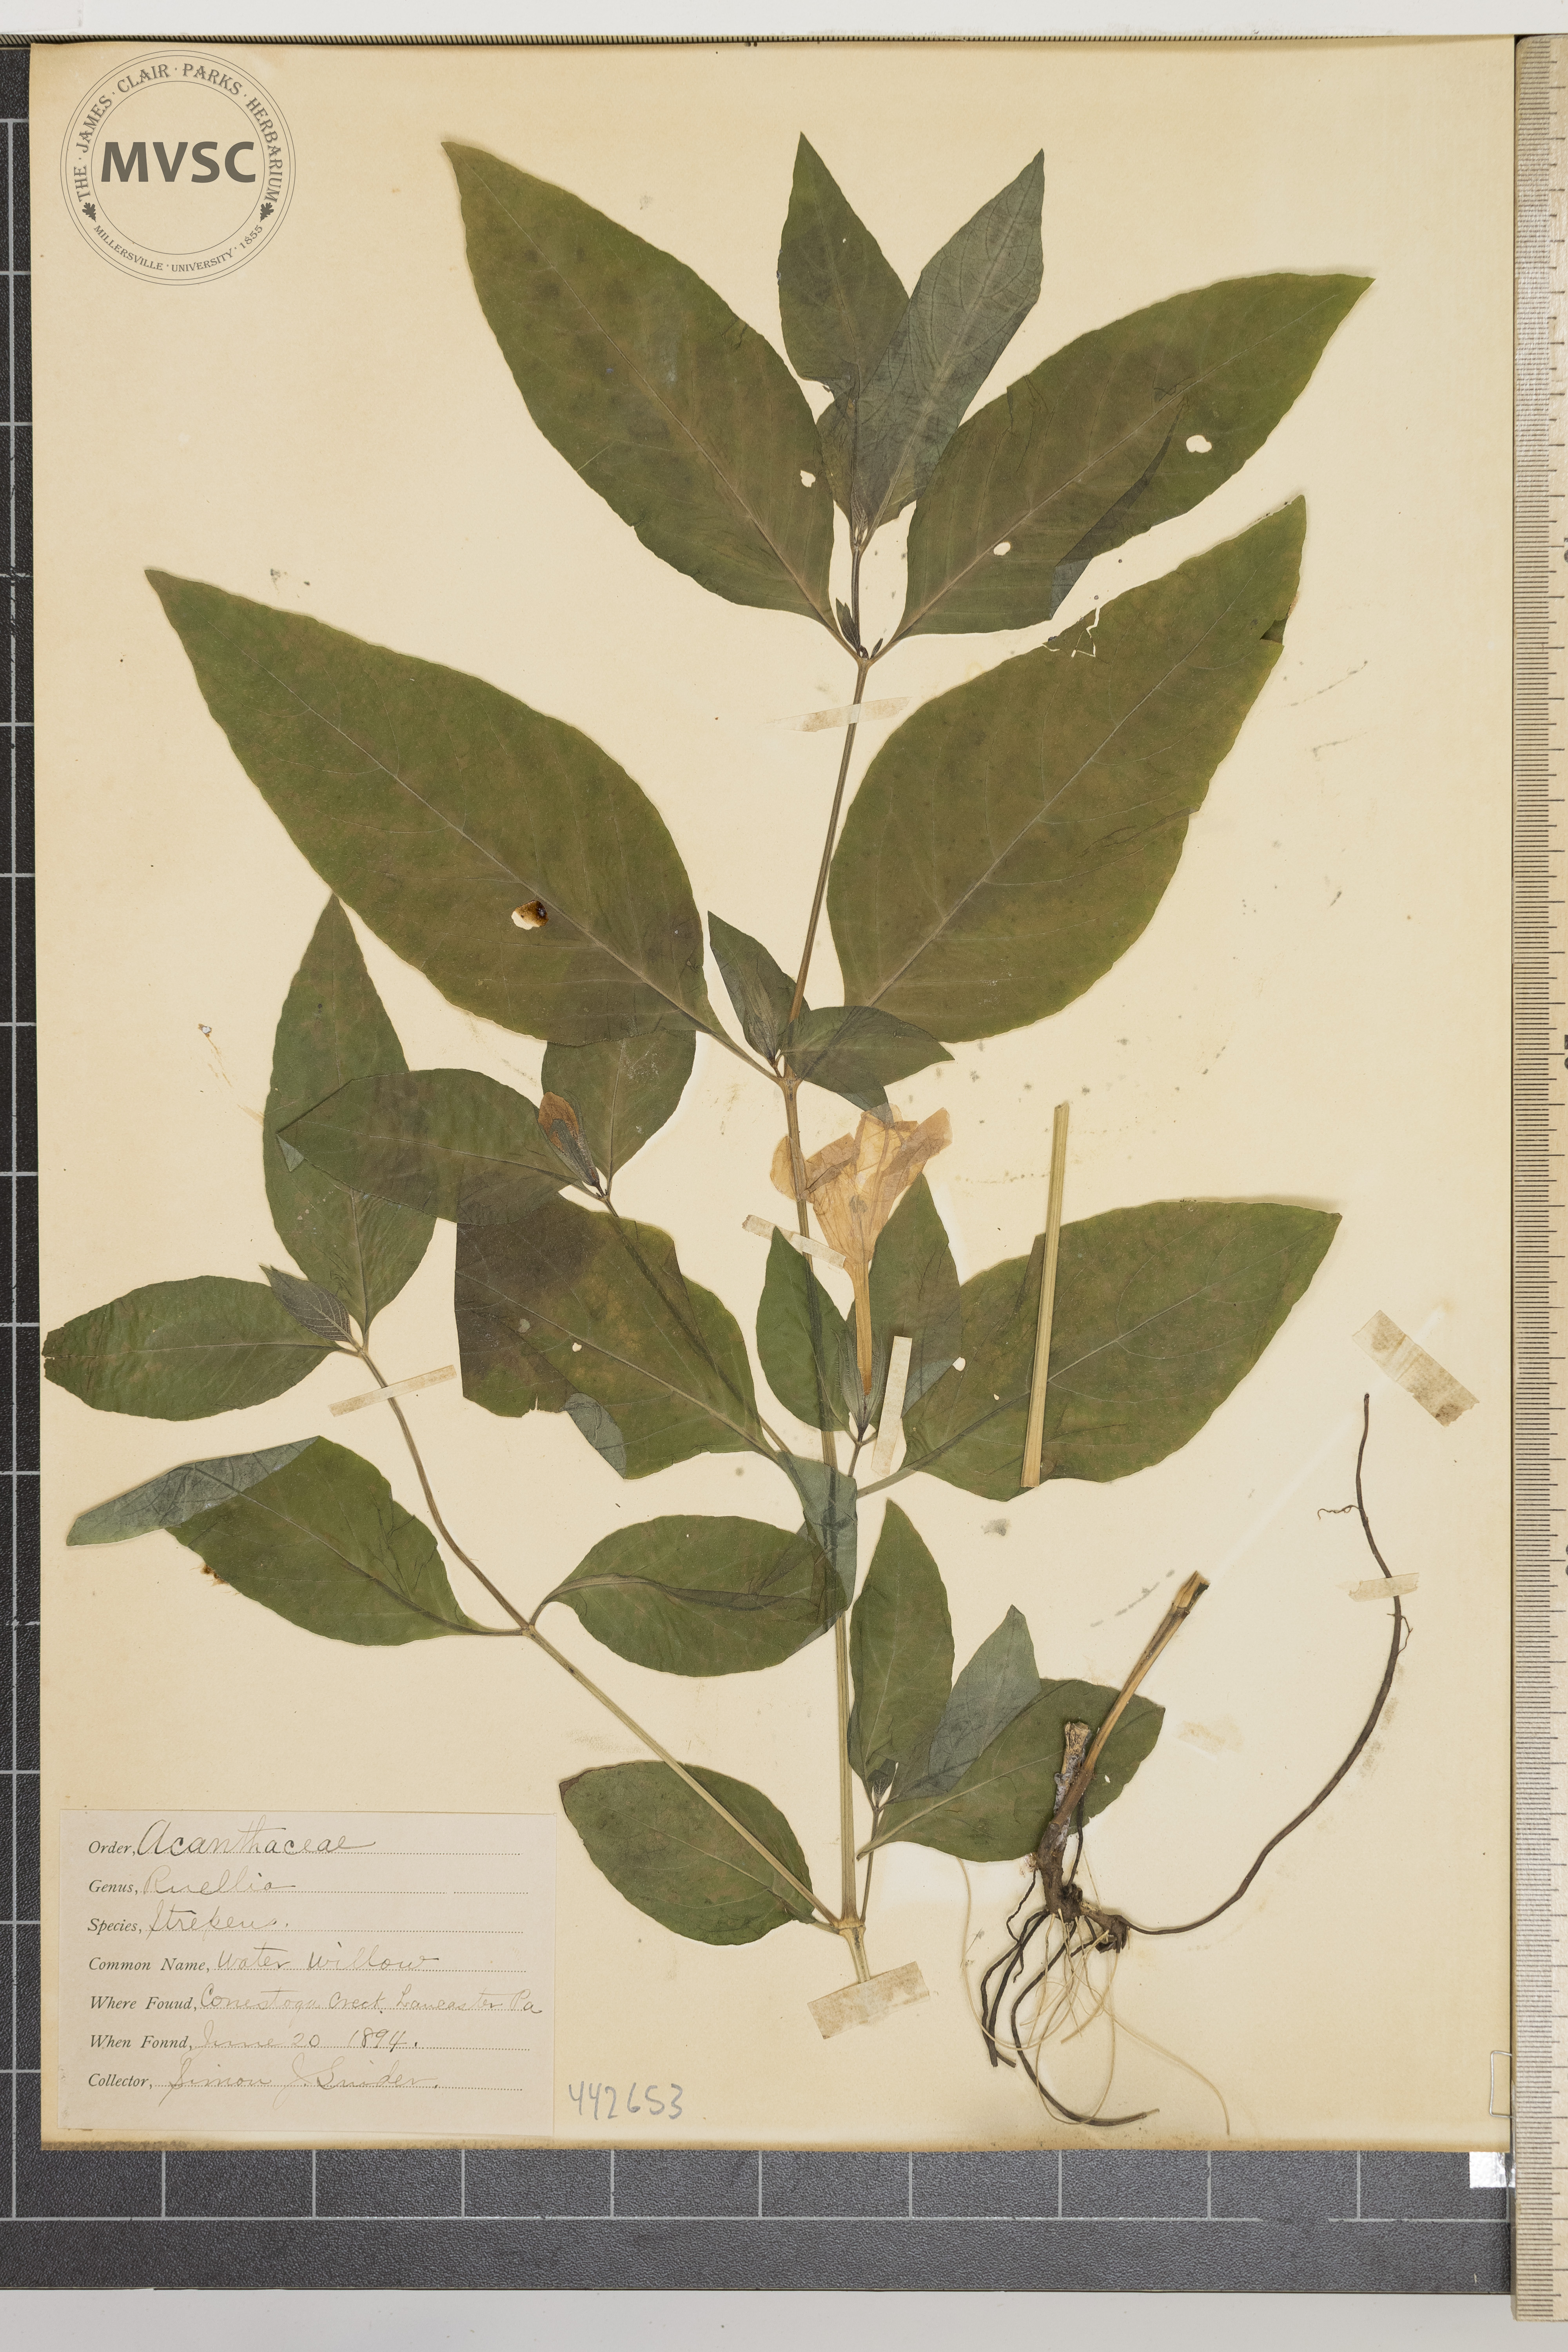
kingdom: Plantae
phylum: Tracheophyta
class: Magnoliopsida
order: Lamiales
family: Acanthaceae
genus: Ruellia
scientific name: Ruellia strepens
